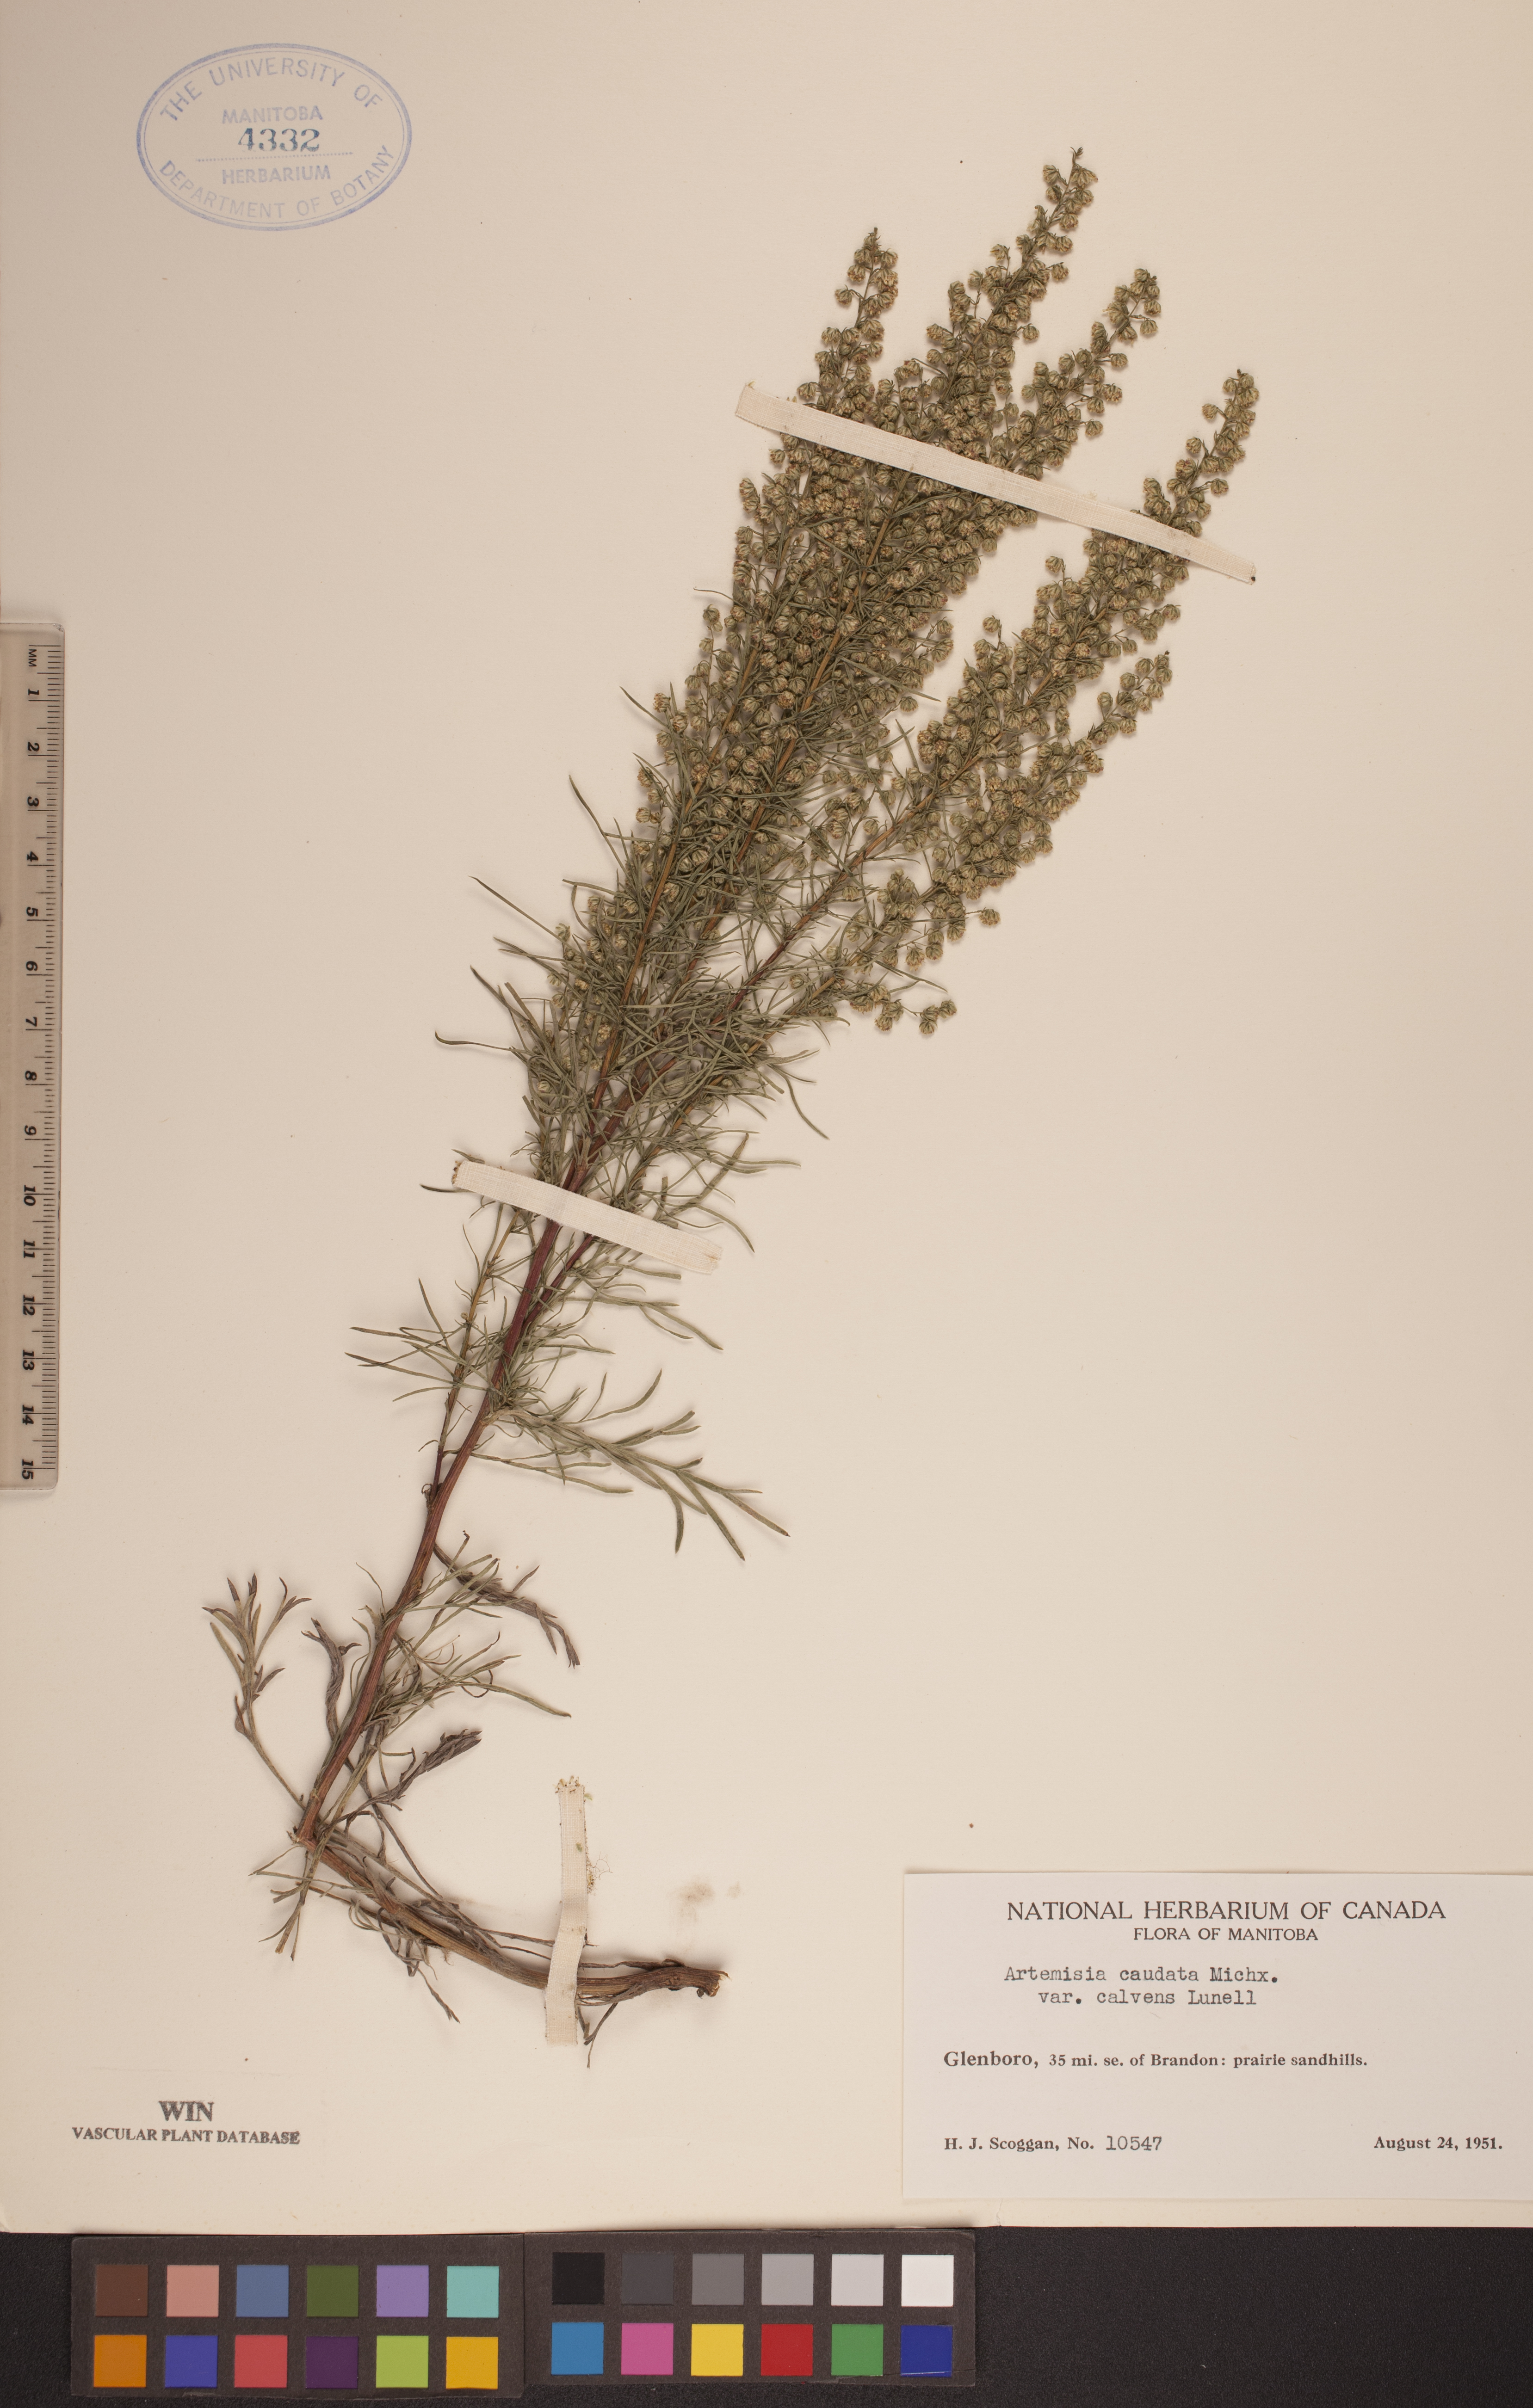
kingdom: Plantae
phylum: Tracheophyta
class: Magnoliopsida
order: Asterales
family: Asteraceae
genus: Artemisia
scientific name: Artemisia campestris
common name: Field wormwood
